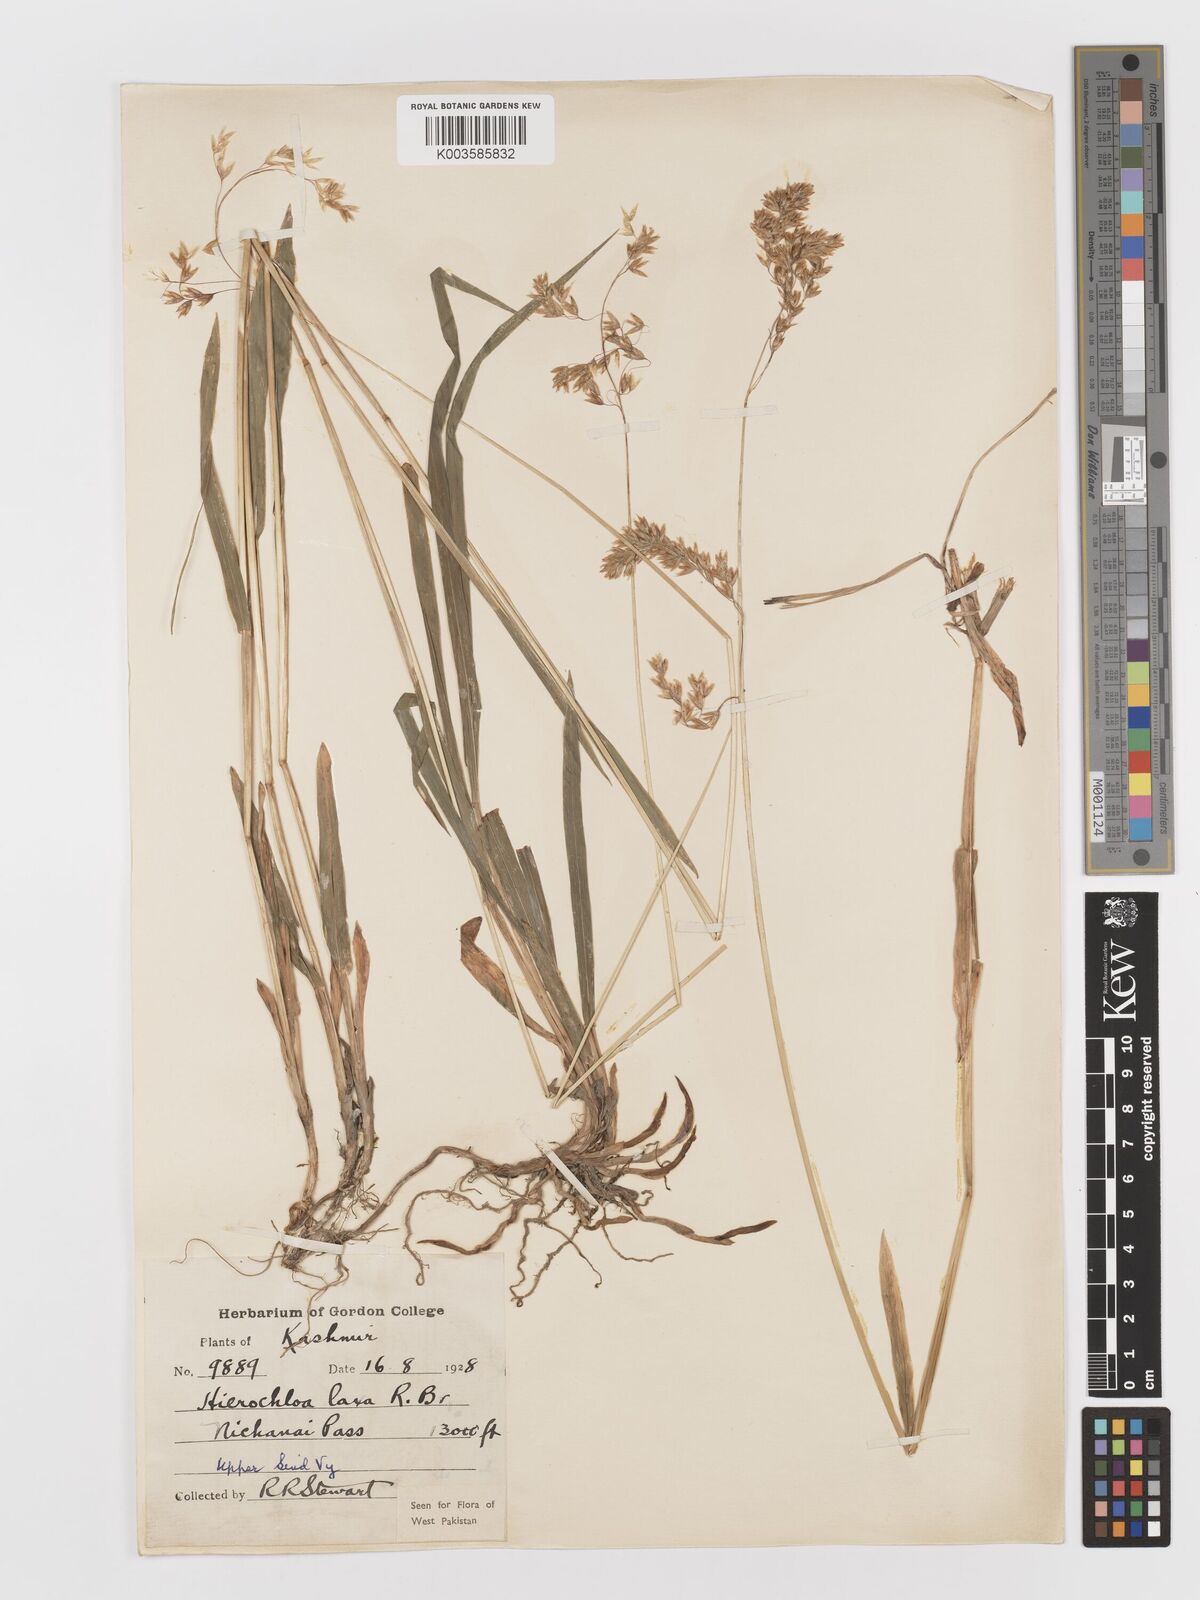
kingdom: Plantae
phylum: Tracheophyta
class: Liliopsida
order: Poales
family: Poaceae
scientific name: Poaceae
